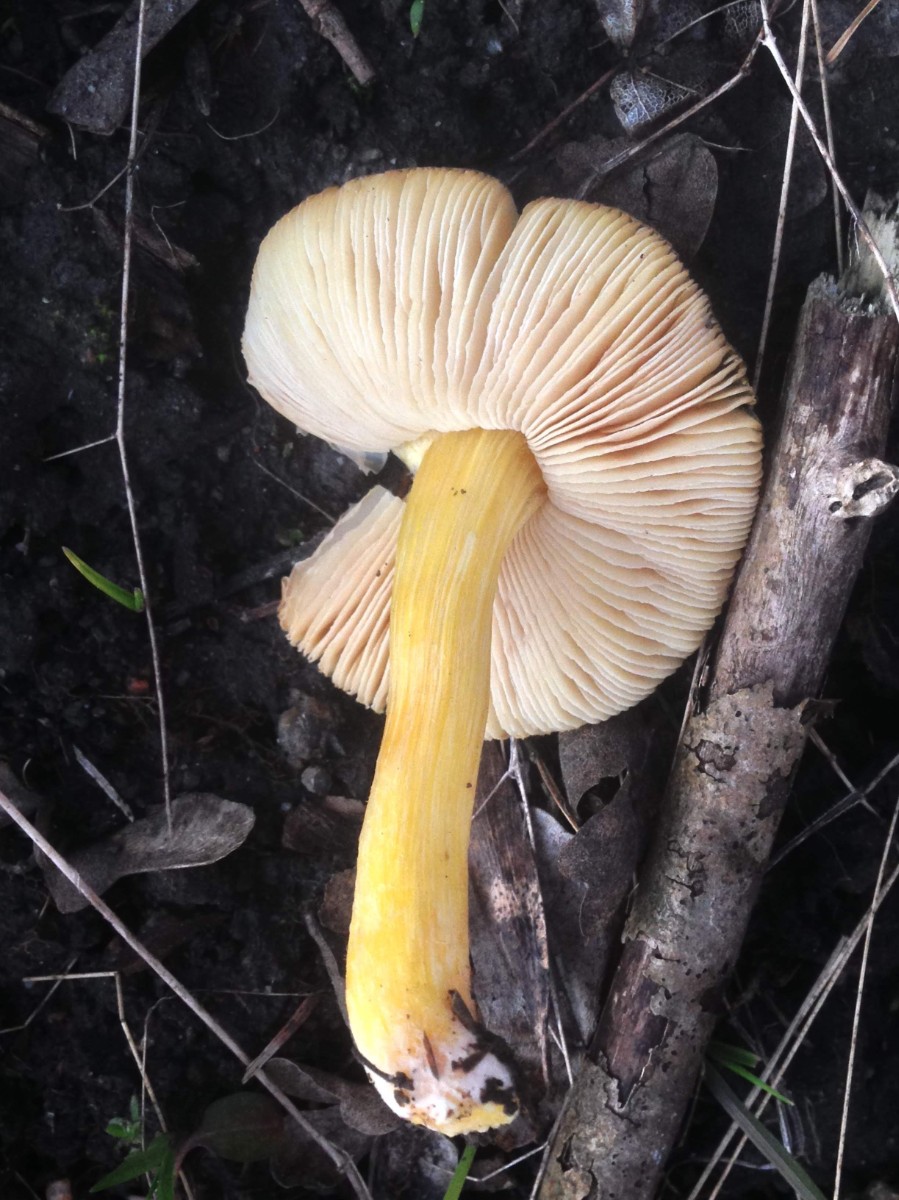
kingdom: Fungi
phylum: Basidiomycota
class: Agaricomycetes
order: Agaricales
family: Pluteaceae
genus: Pluteus
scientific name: Pluteus vellingae
